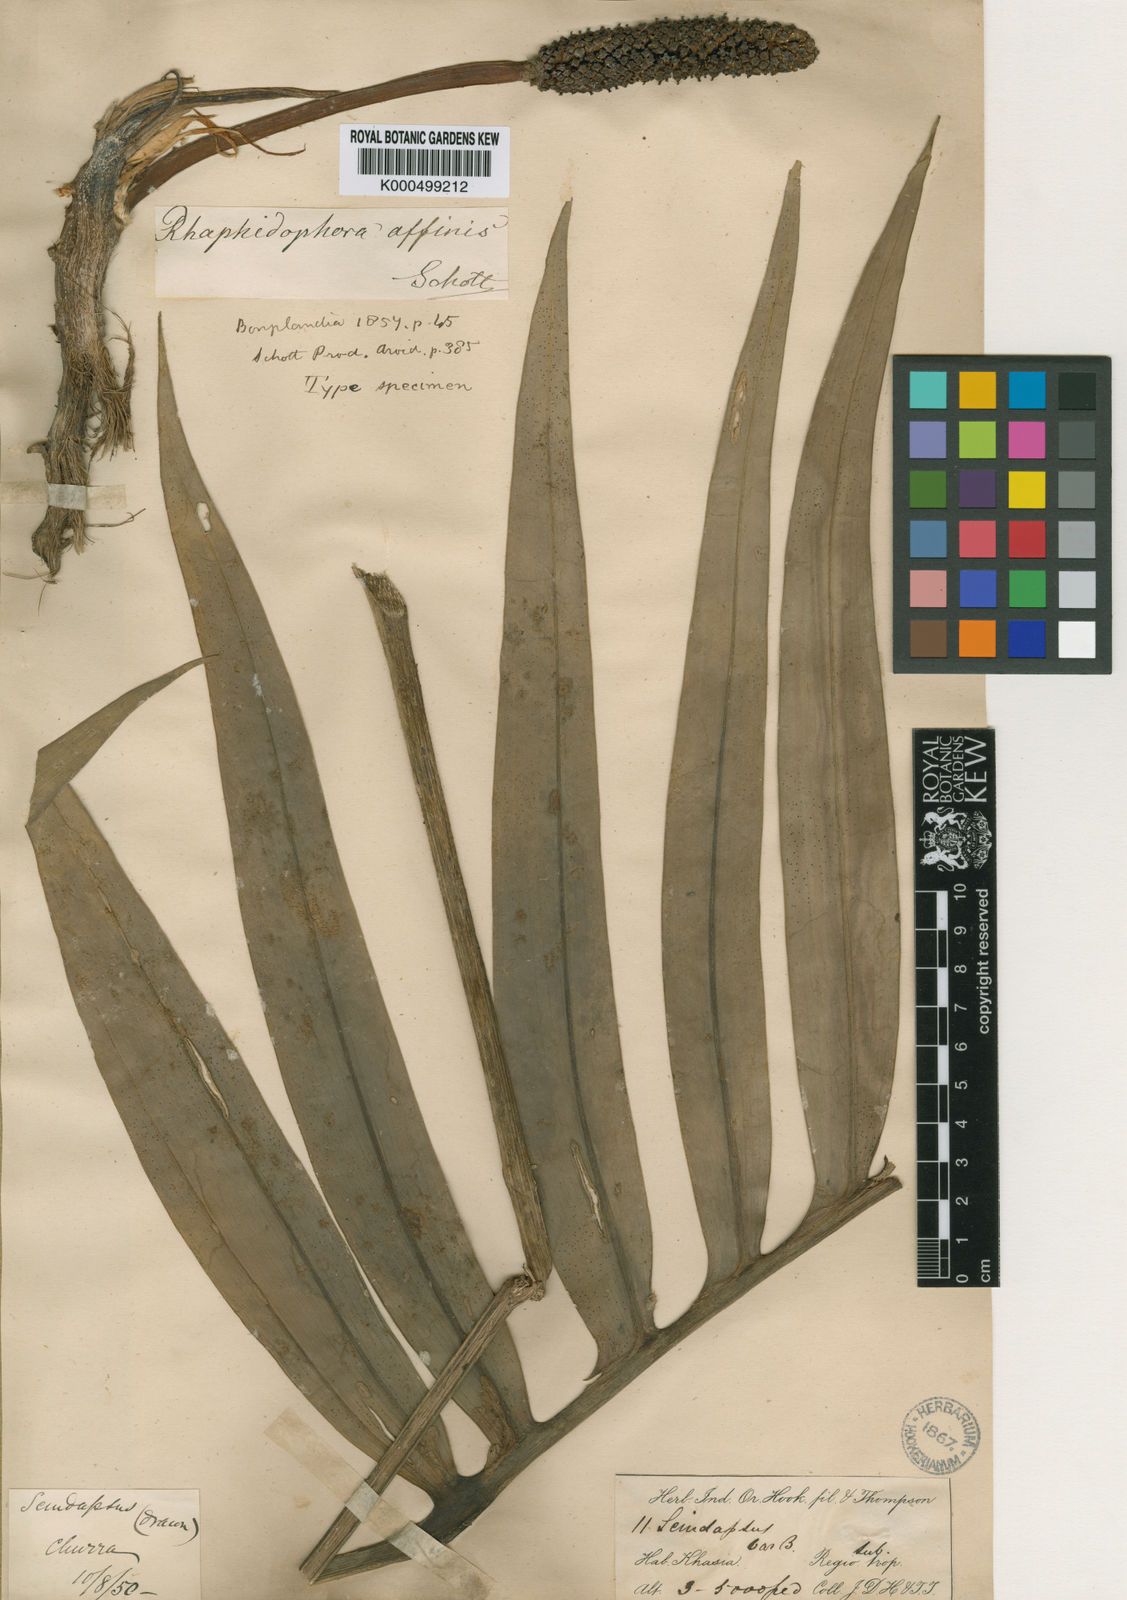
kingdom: Plantae
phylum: Tracheophyta
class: Liliopsida
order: Alismatales
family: Araceae
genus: Rhaphidophora
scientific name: Rhaphidophora decursiva
